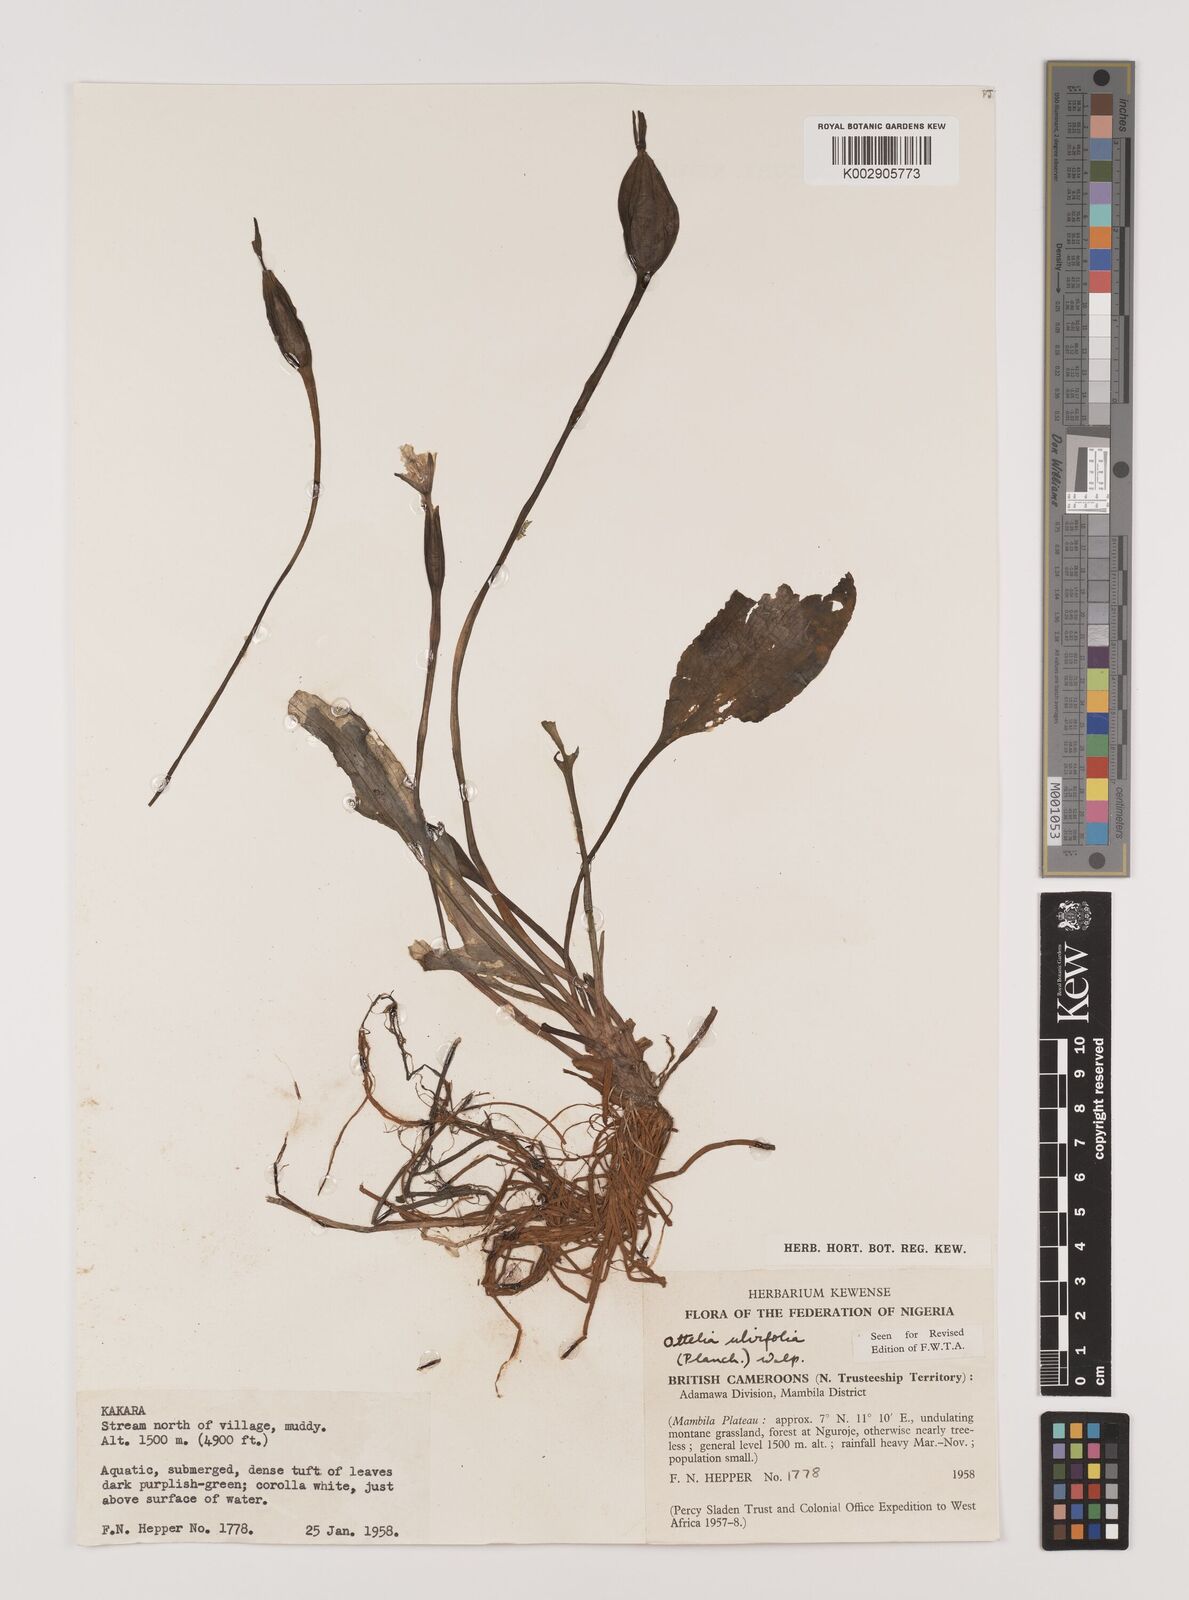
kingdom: Plantae
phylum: Tracheophyta
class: Liliopsida
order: Alismatales
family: Hydrocharitaceae
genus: Ottelia
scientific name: Ottelia ulvifolia
